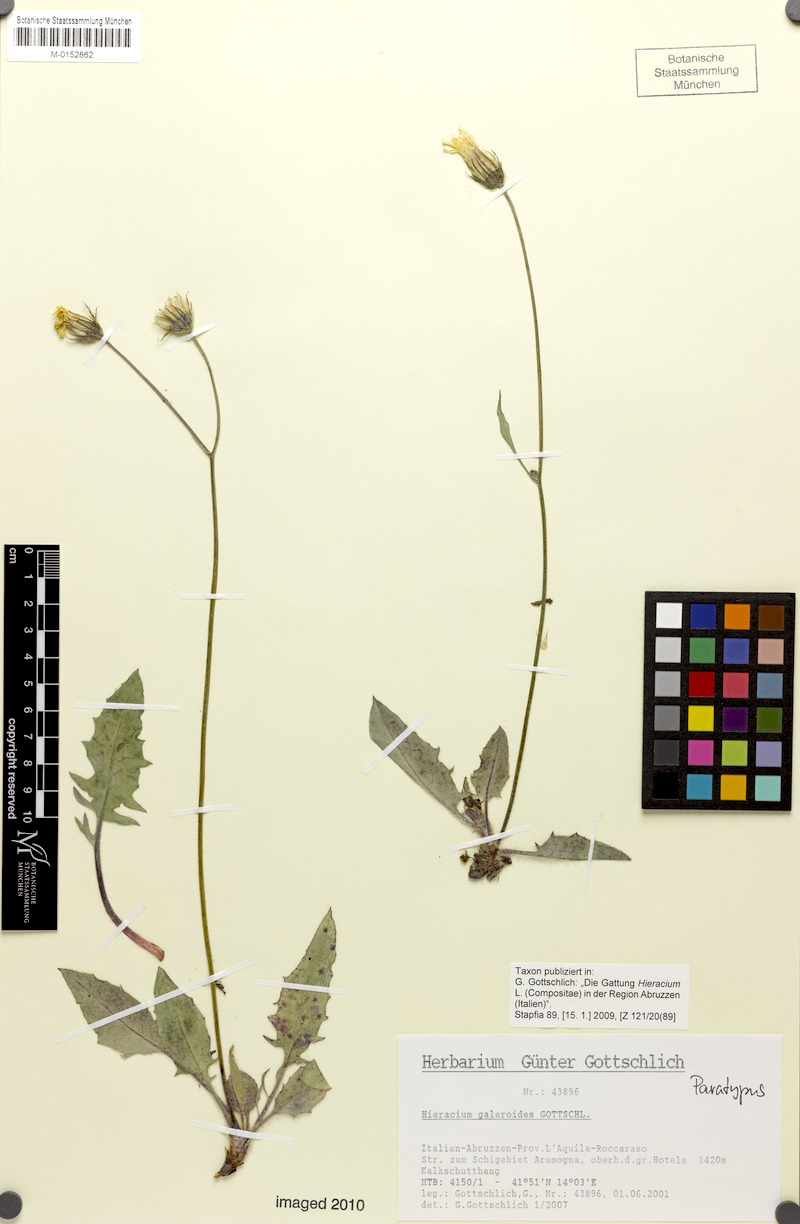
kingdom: Plantae
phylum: Tracheophyta
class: Magnoliopsida
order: Asterales
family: Asteraceae
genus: Hieracium
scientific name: Hieracium galeroides
